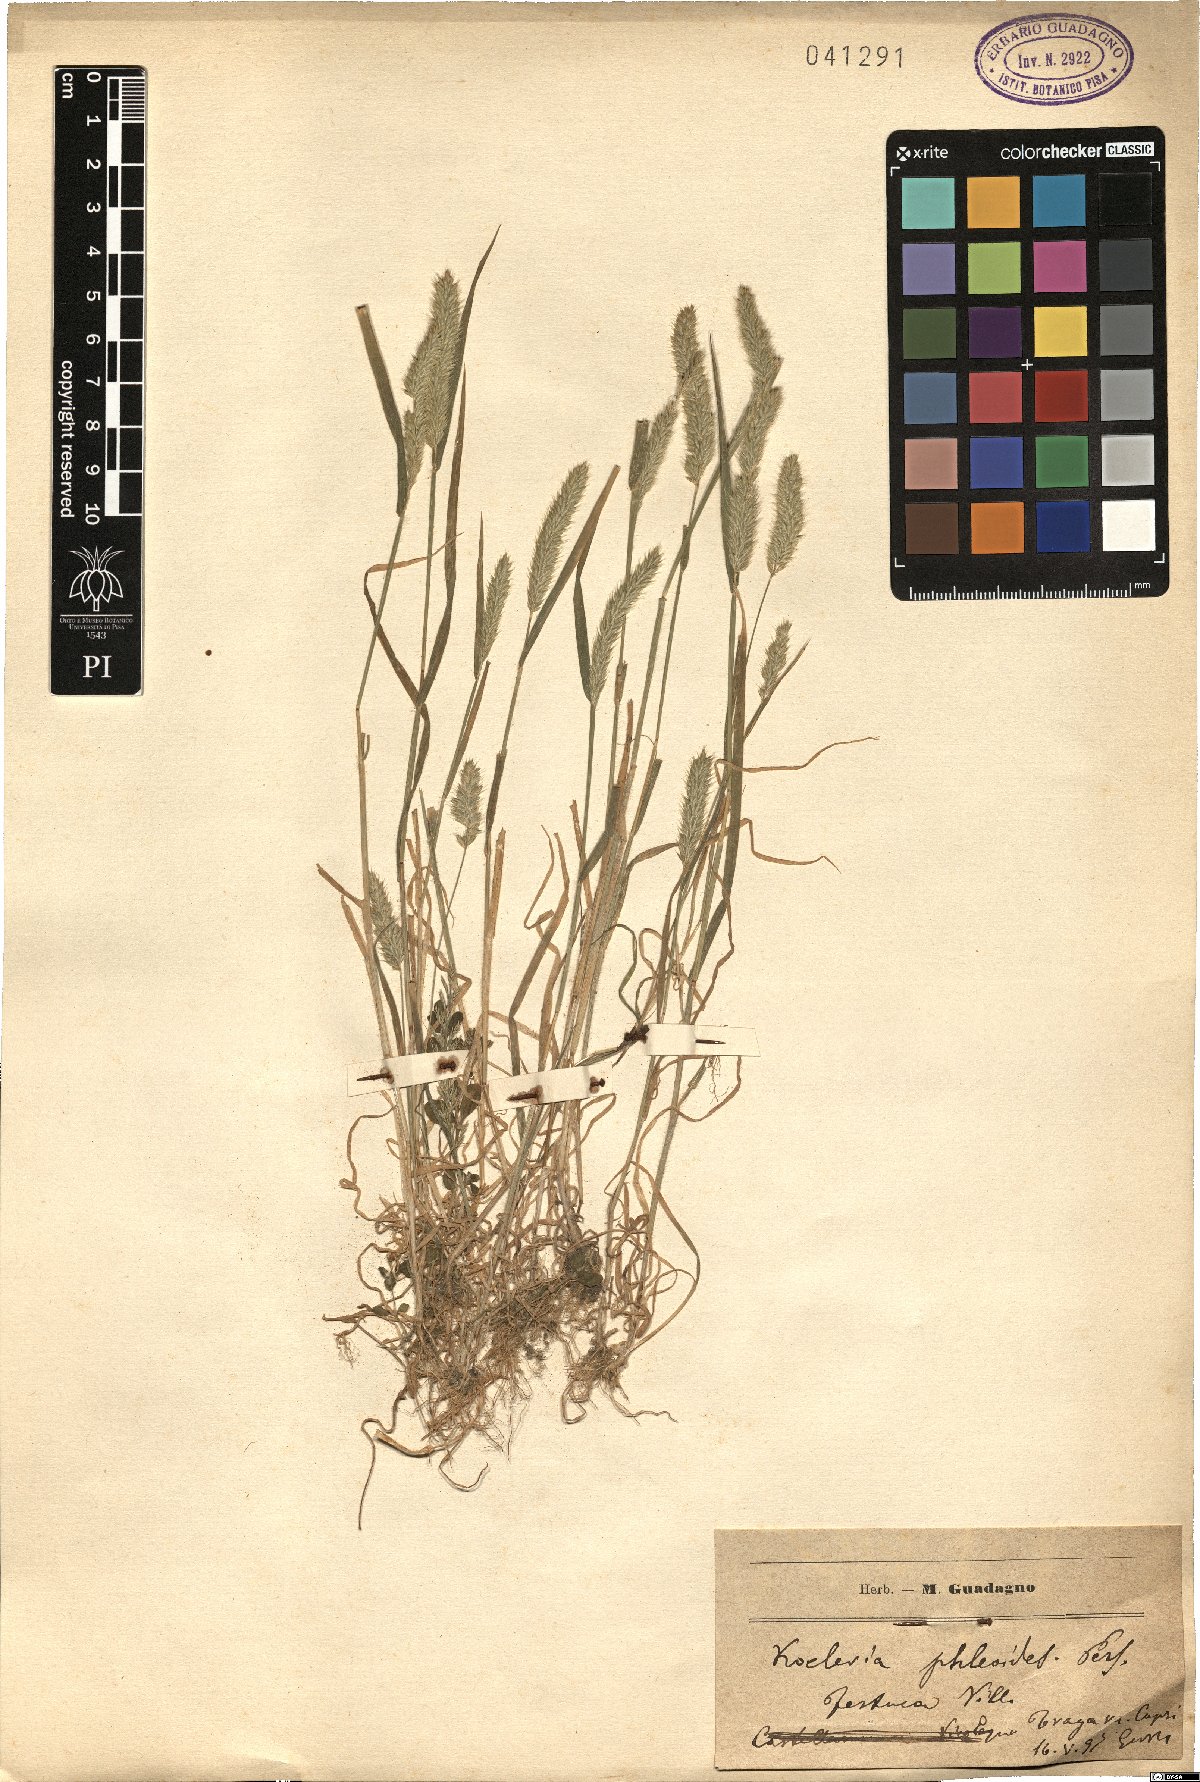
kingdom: Plantae
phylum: Tracheophyta
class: Liliopsida
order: Poales
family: Poaceae
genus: Rostraria
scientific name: Rostraria cristata
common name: Mediterranean hair-grass
